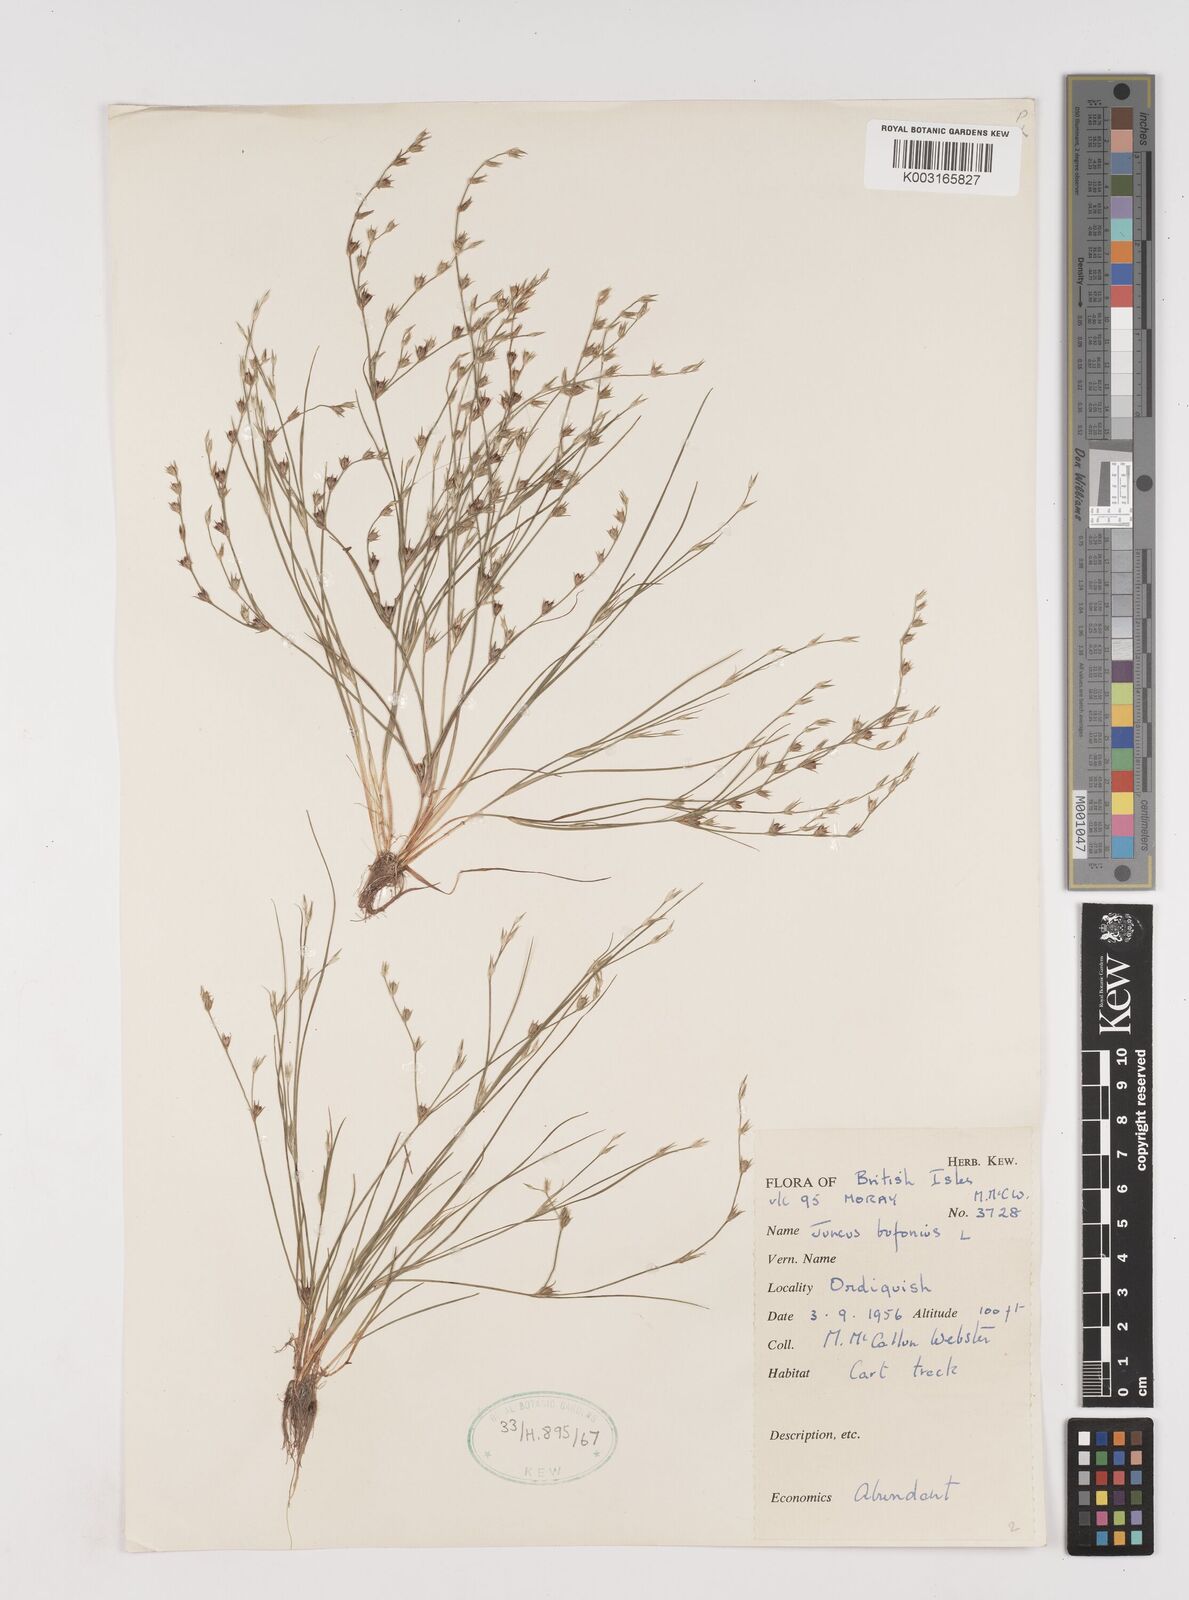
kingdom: Plantae
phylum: Tracheophyta
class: Liliopsida
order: Poales
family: Juncaceae
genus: Juncus
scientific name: Juncus bufonius
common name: Toad rush
